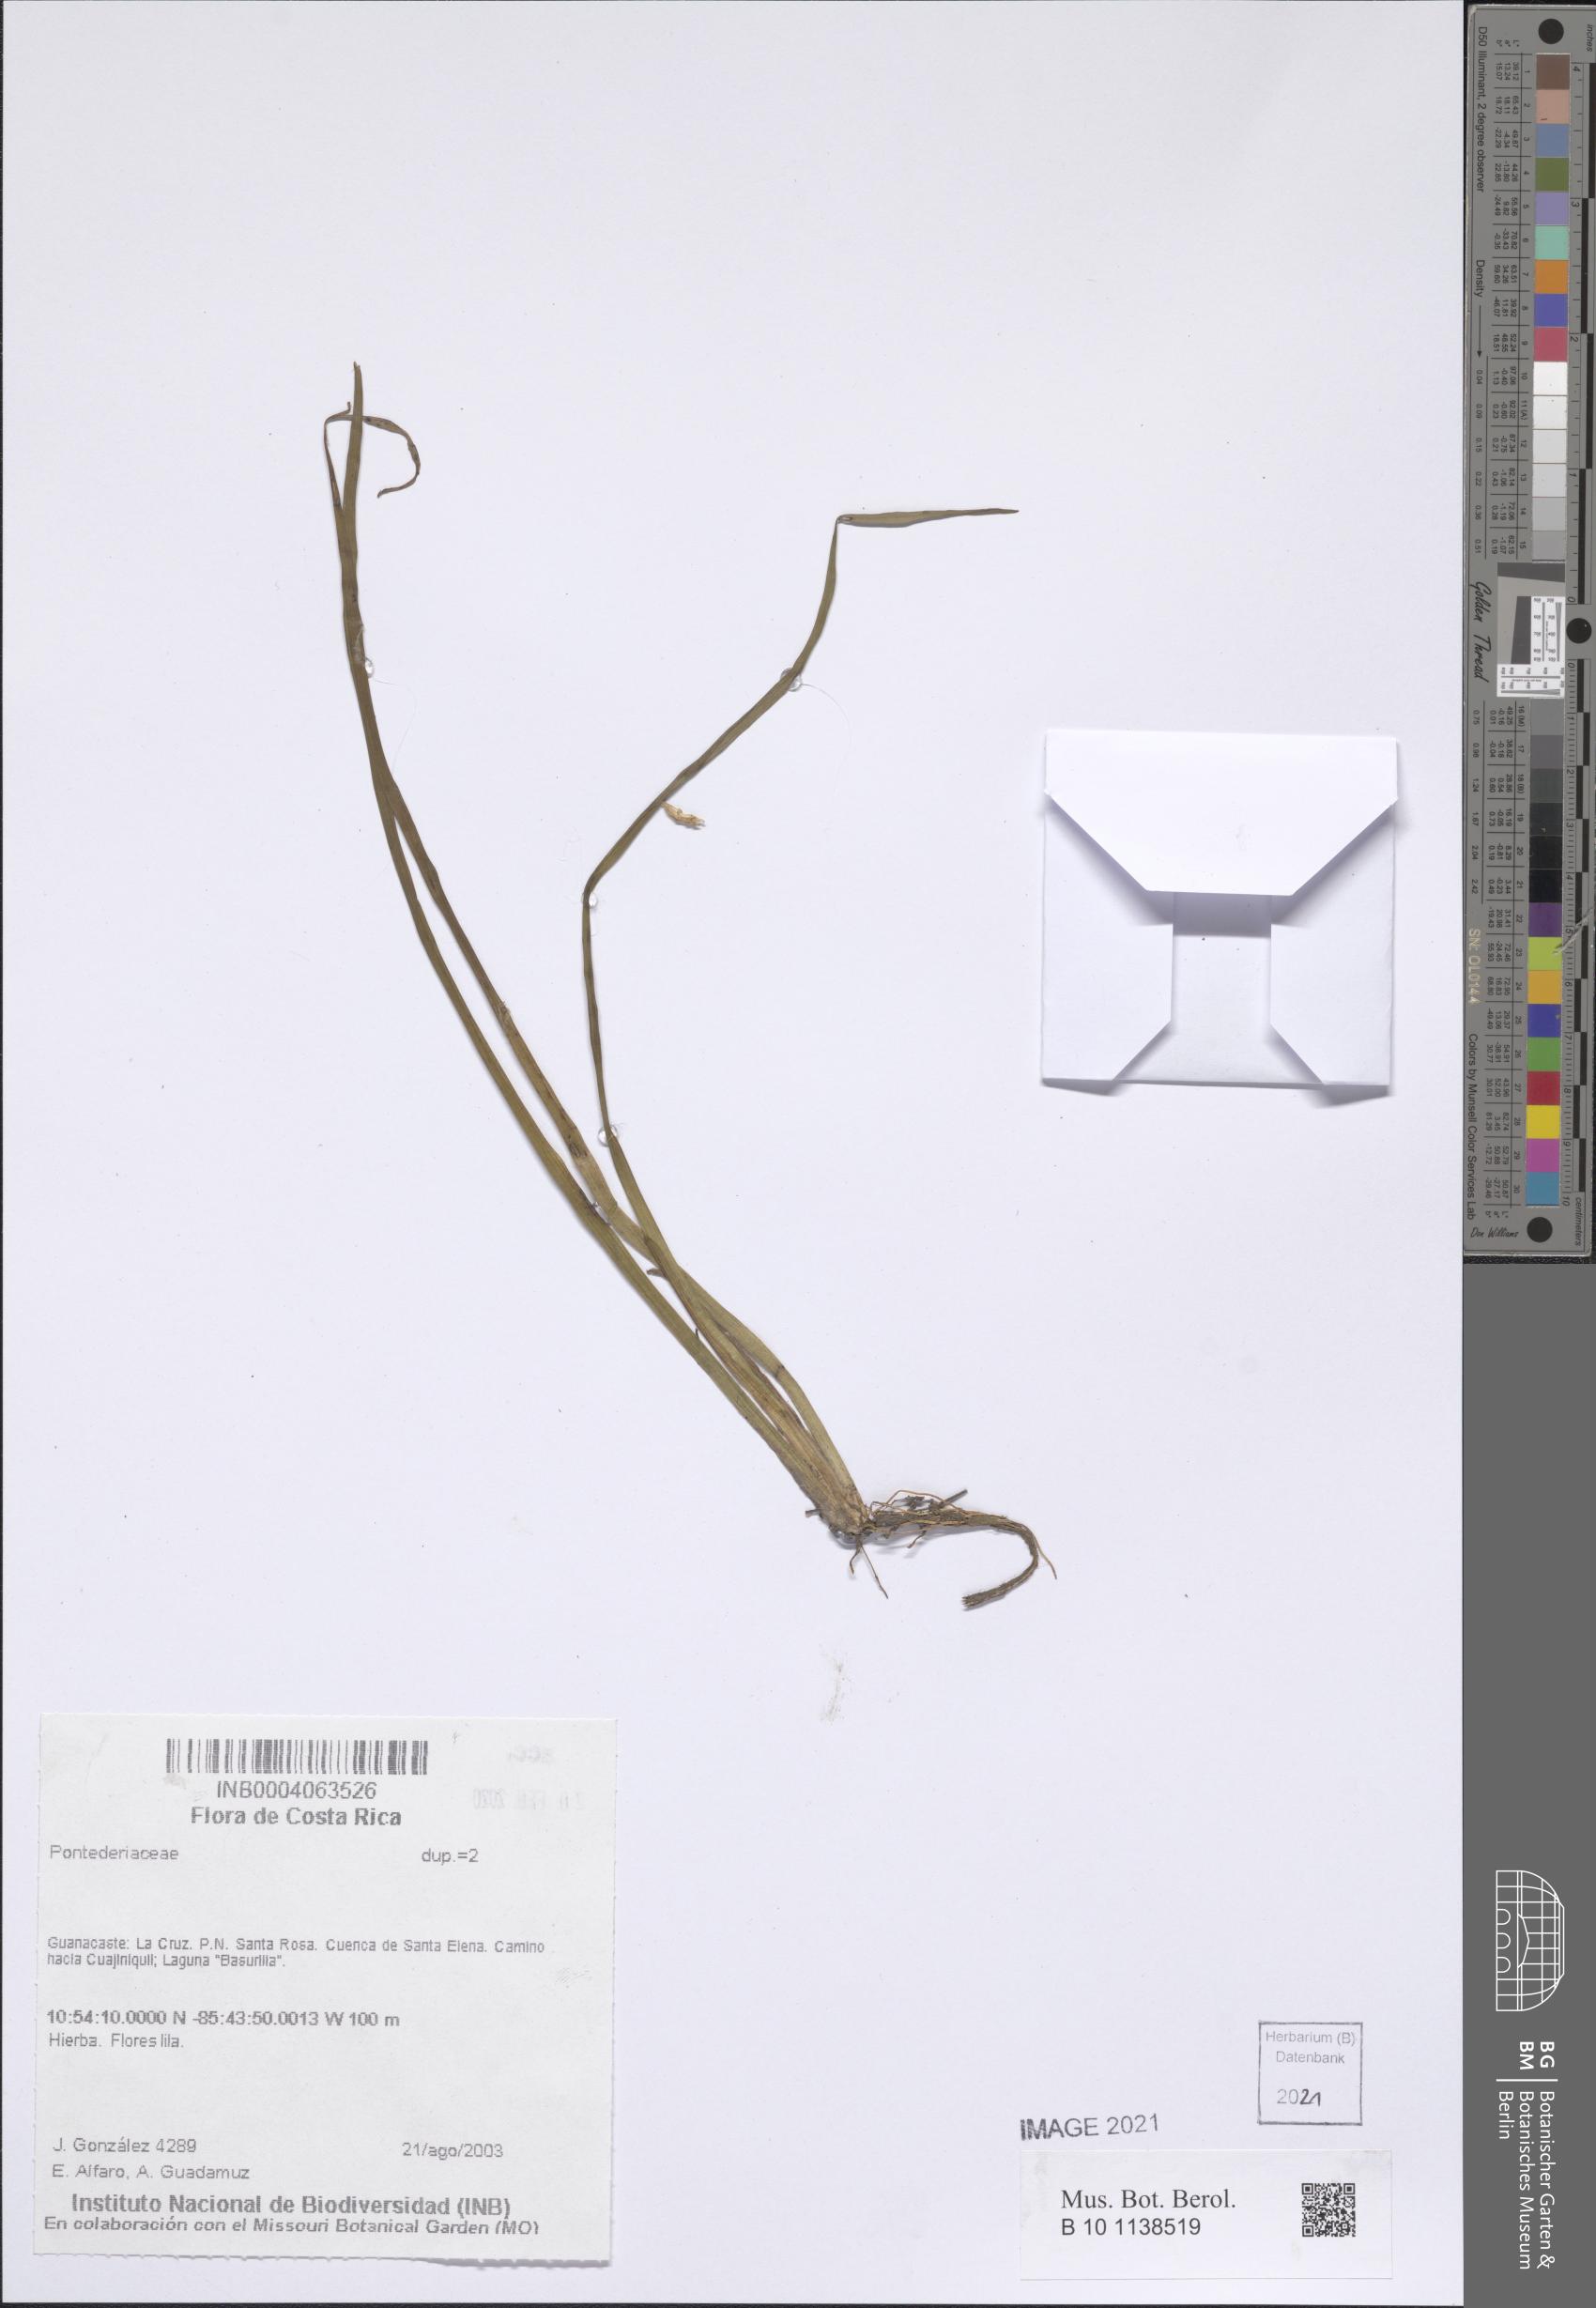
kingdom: Plantae
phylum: Tracheophyta
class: Liliopsida
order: Commelinales
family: Pontederiaceae
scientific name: Pontederiaceae
